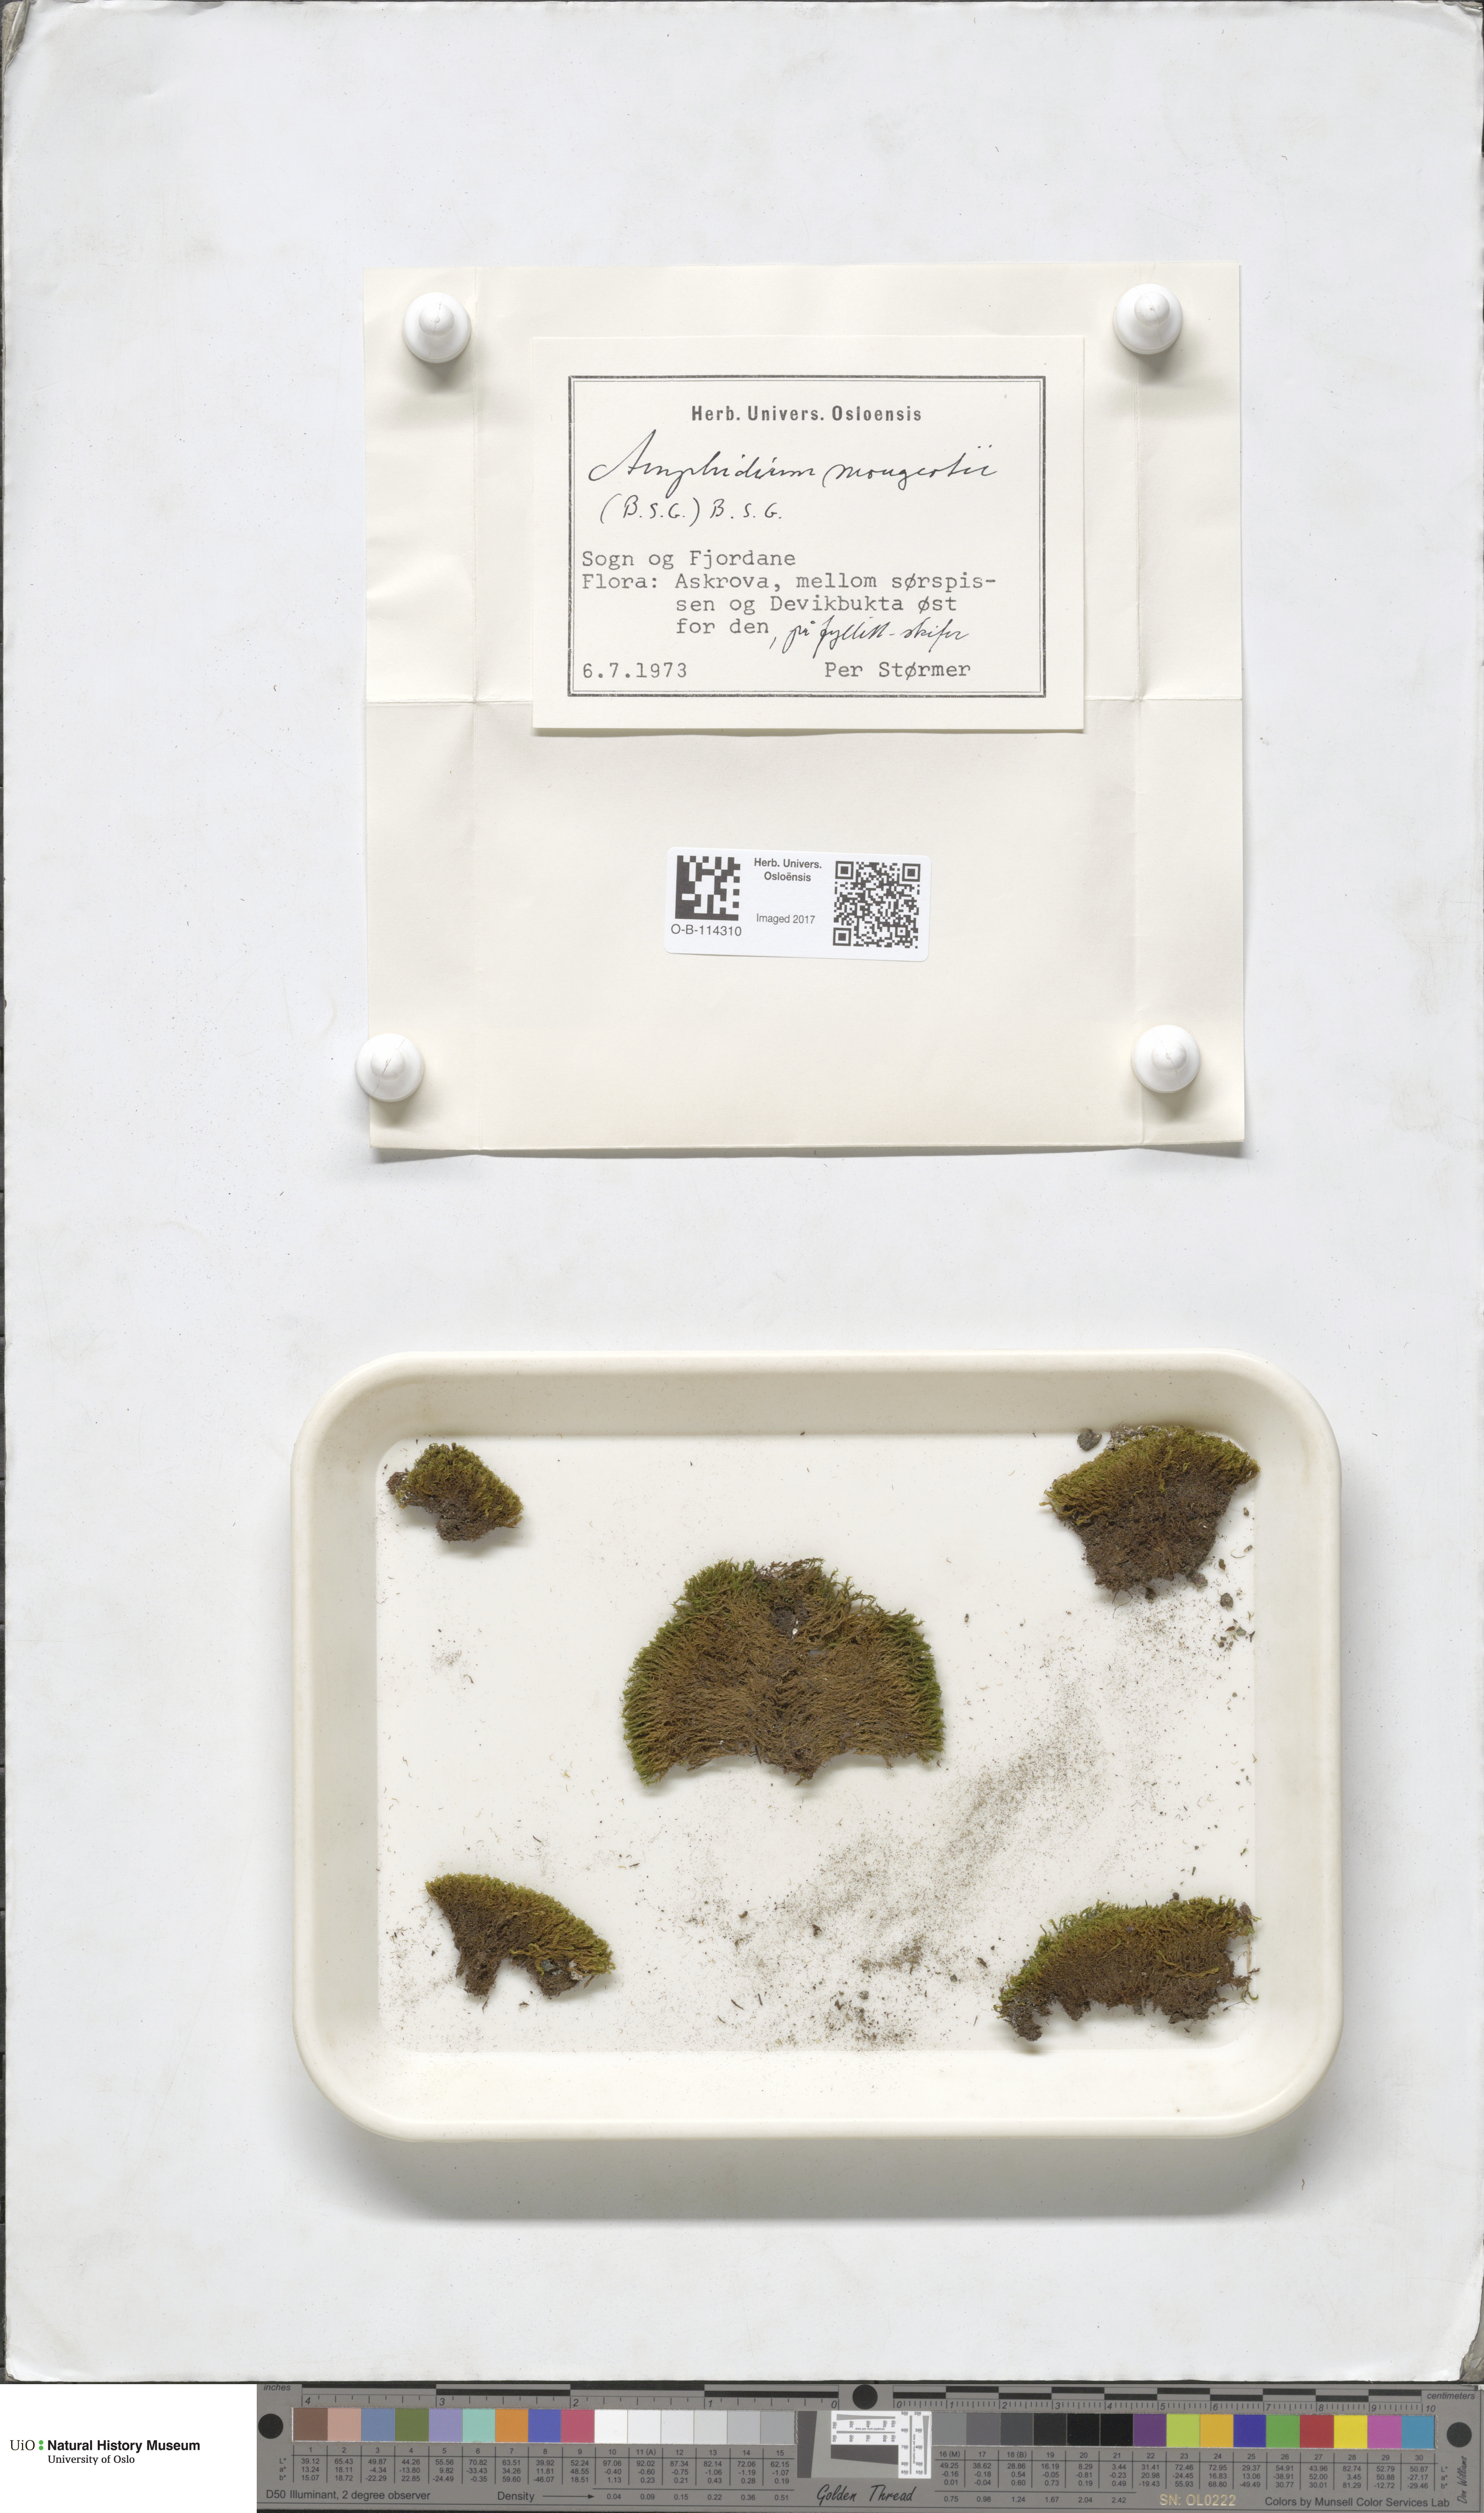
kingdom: Plantae
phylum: Bryophyta
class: Bryopsida
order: Dicranales
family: Amphidiaceae
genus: Amphidium
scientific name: Amphidium mougeotii
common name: Mougeot's yoke moss
